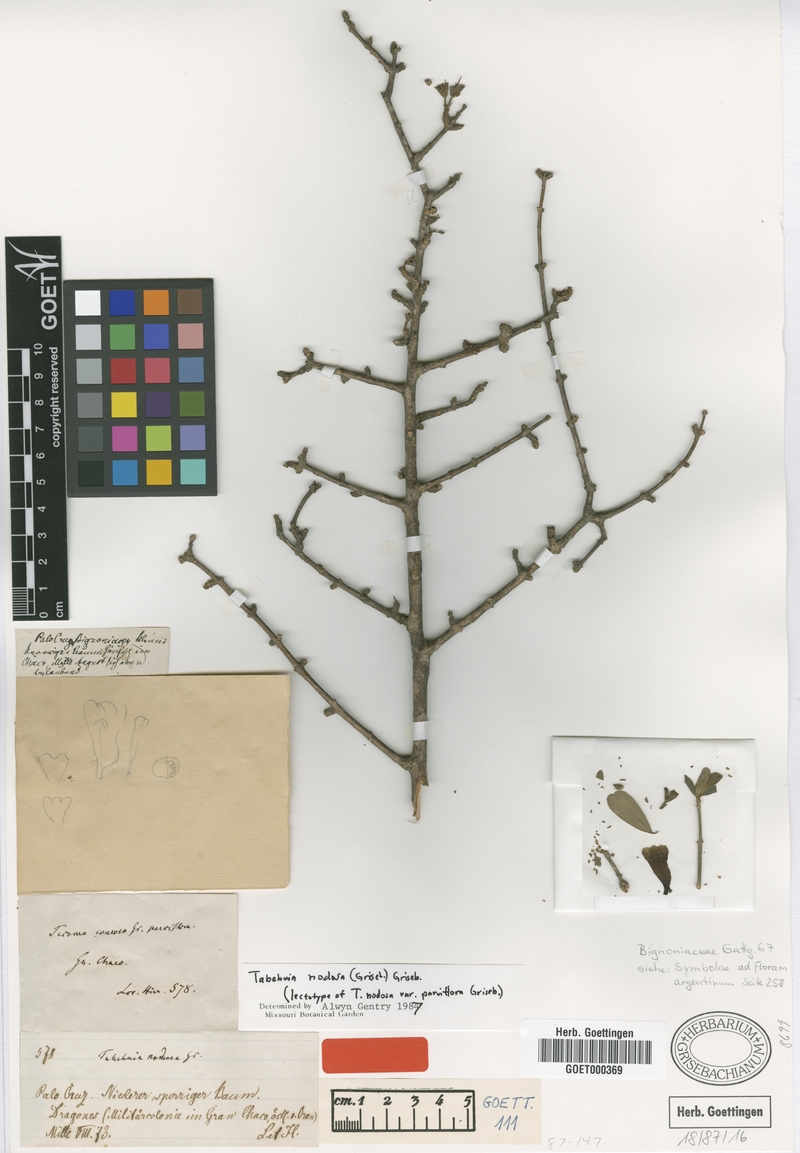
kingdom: Plantae
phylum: Tracheophyta
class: Magnoliopsida
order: Lamiales
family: Bignoniaceae
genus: Tabebuia
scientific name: Tabebuia nodosa
